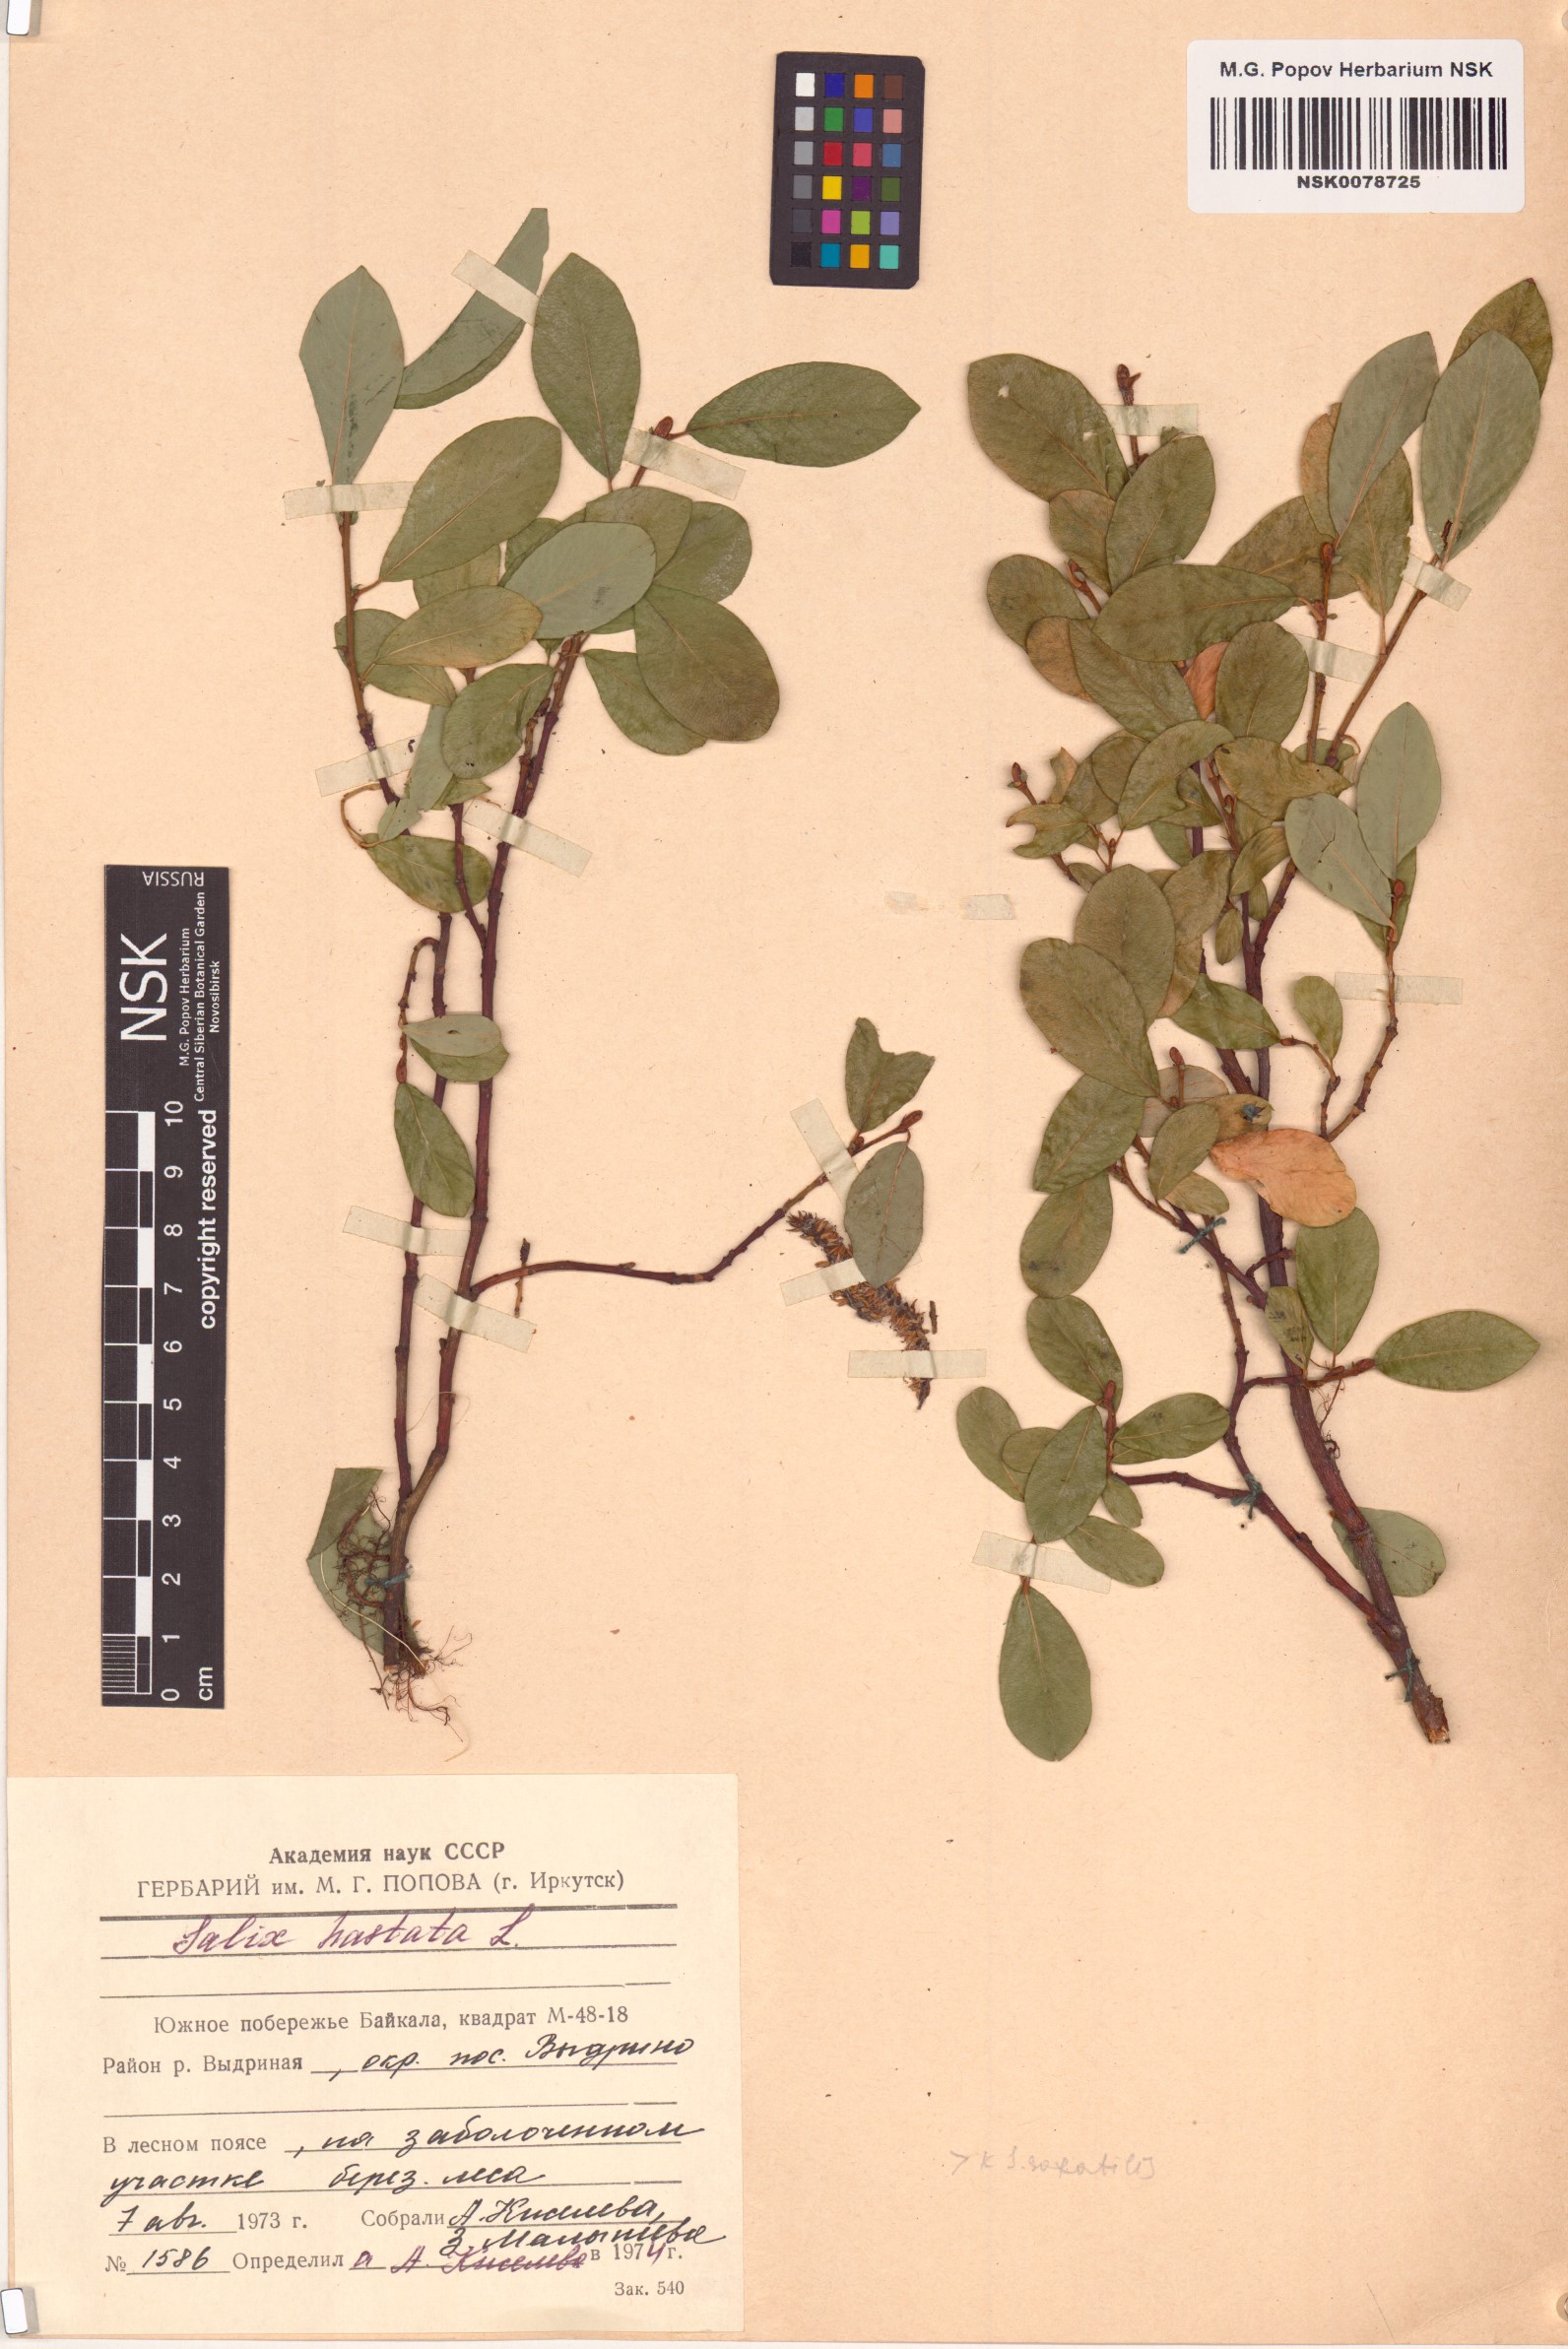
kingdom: Plantae
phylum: Tracheophyta
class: Magnoliopsida
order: Malpighiales
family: Salicaceae
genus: Salix
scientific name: Salix hastata
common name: Halberd willow
